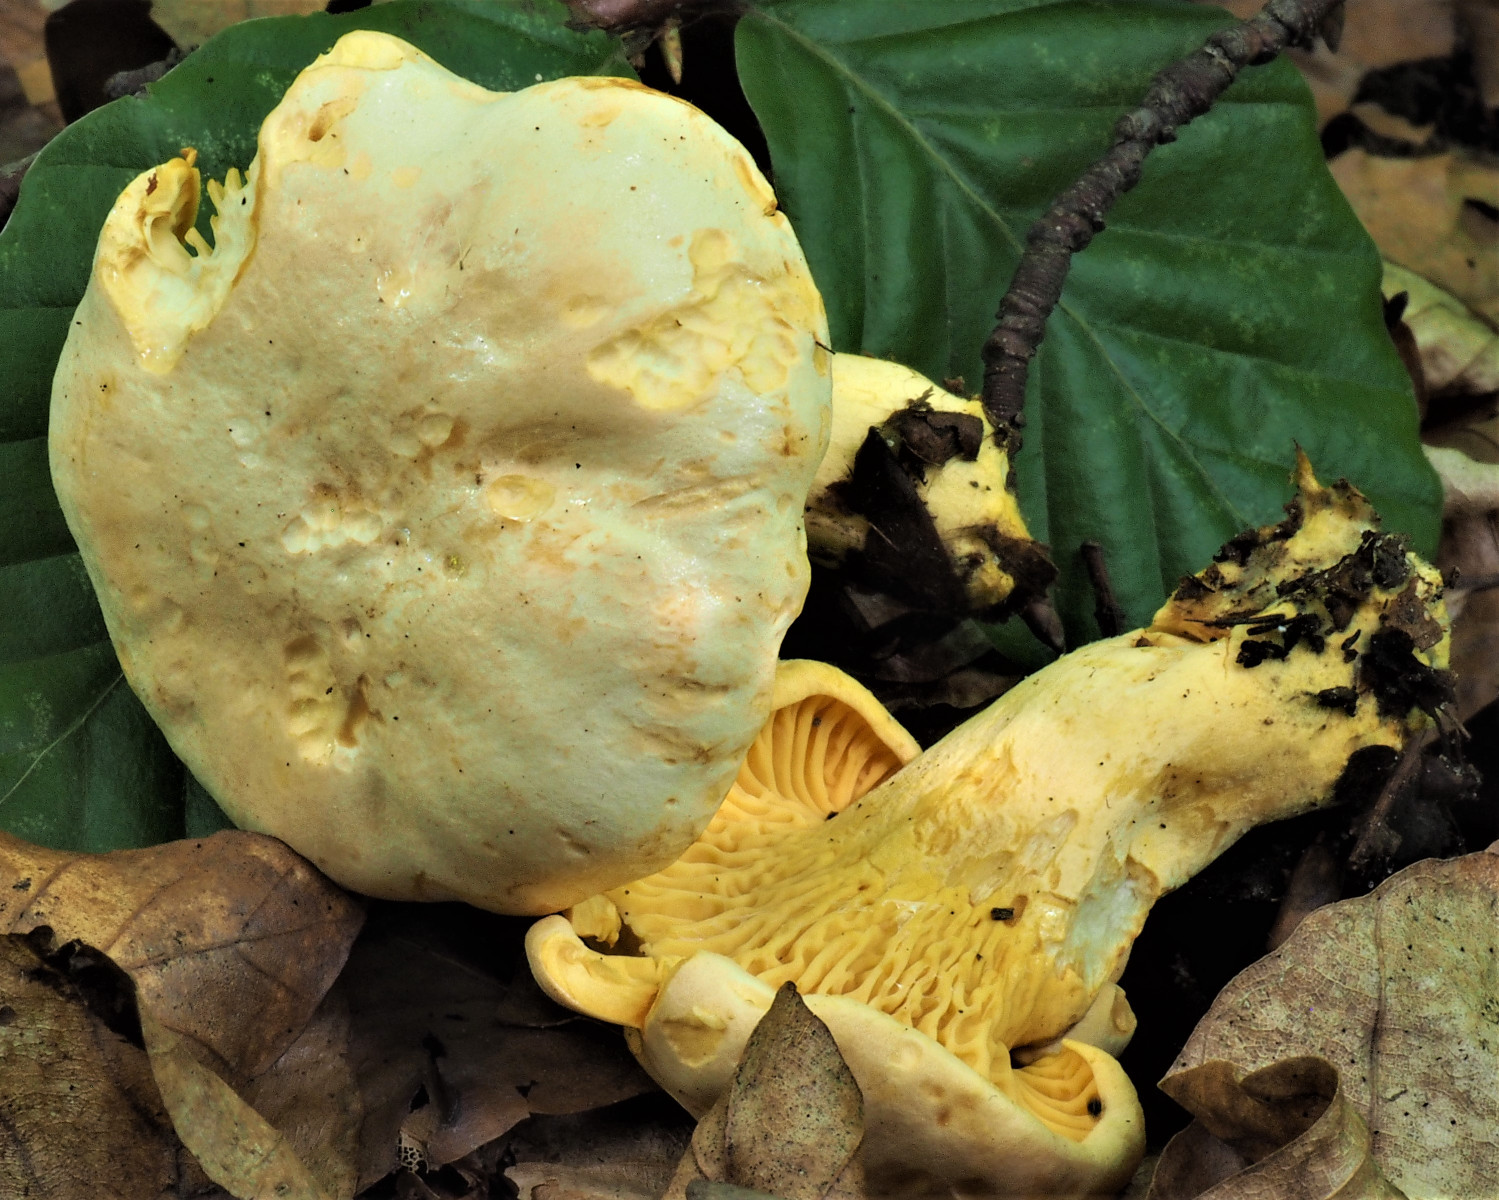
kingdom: Fungi
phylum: Basidiomycota
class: Agaricomycetes
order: Cantharellales
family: Hydnaceae
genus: Cantharellus
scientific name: Cantharellus pallens
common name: bleg kantarel
